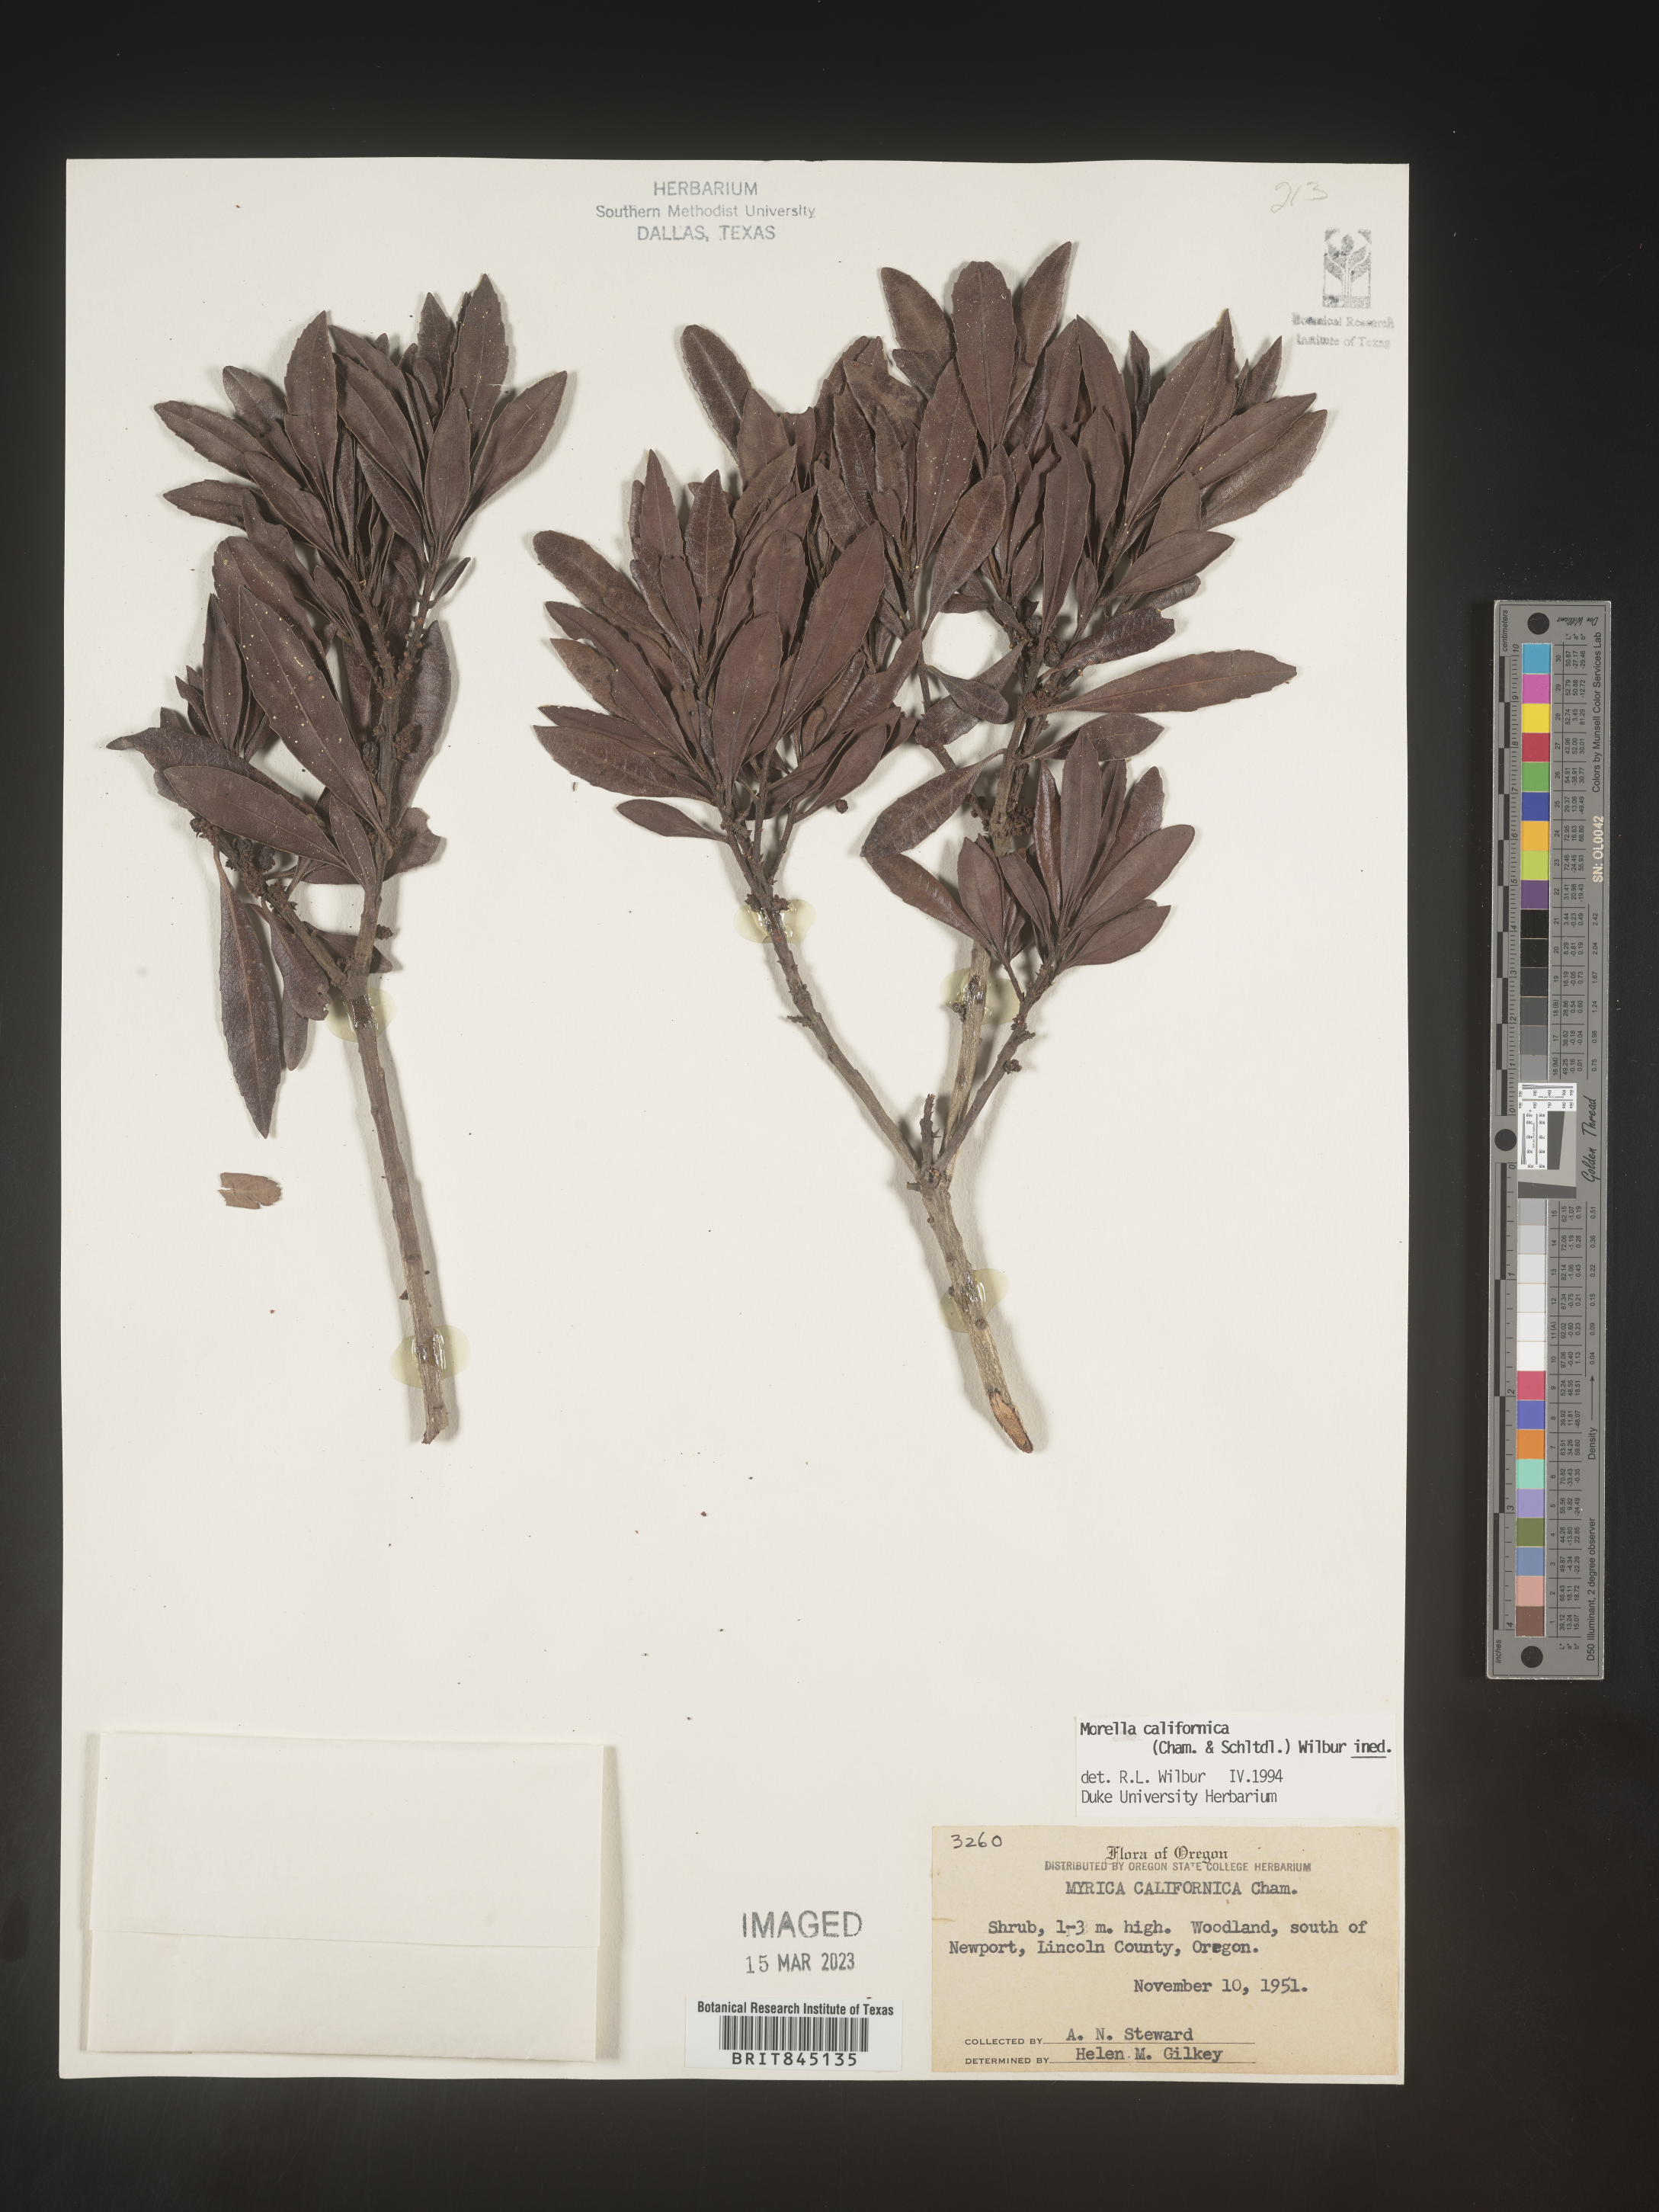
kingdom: Plantae
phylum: Tracheophyta
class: Magnoliopsida
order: Fagales
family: Myricaceae
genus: Morella
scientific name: Morella californica
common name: California wax-myrtle
